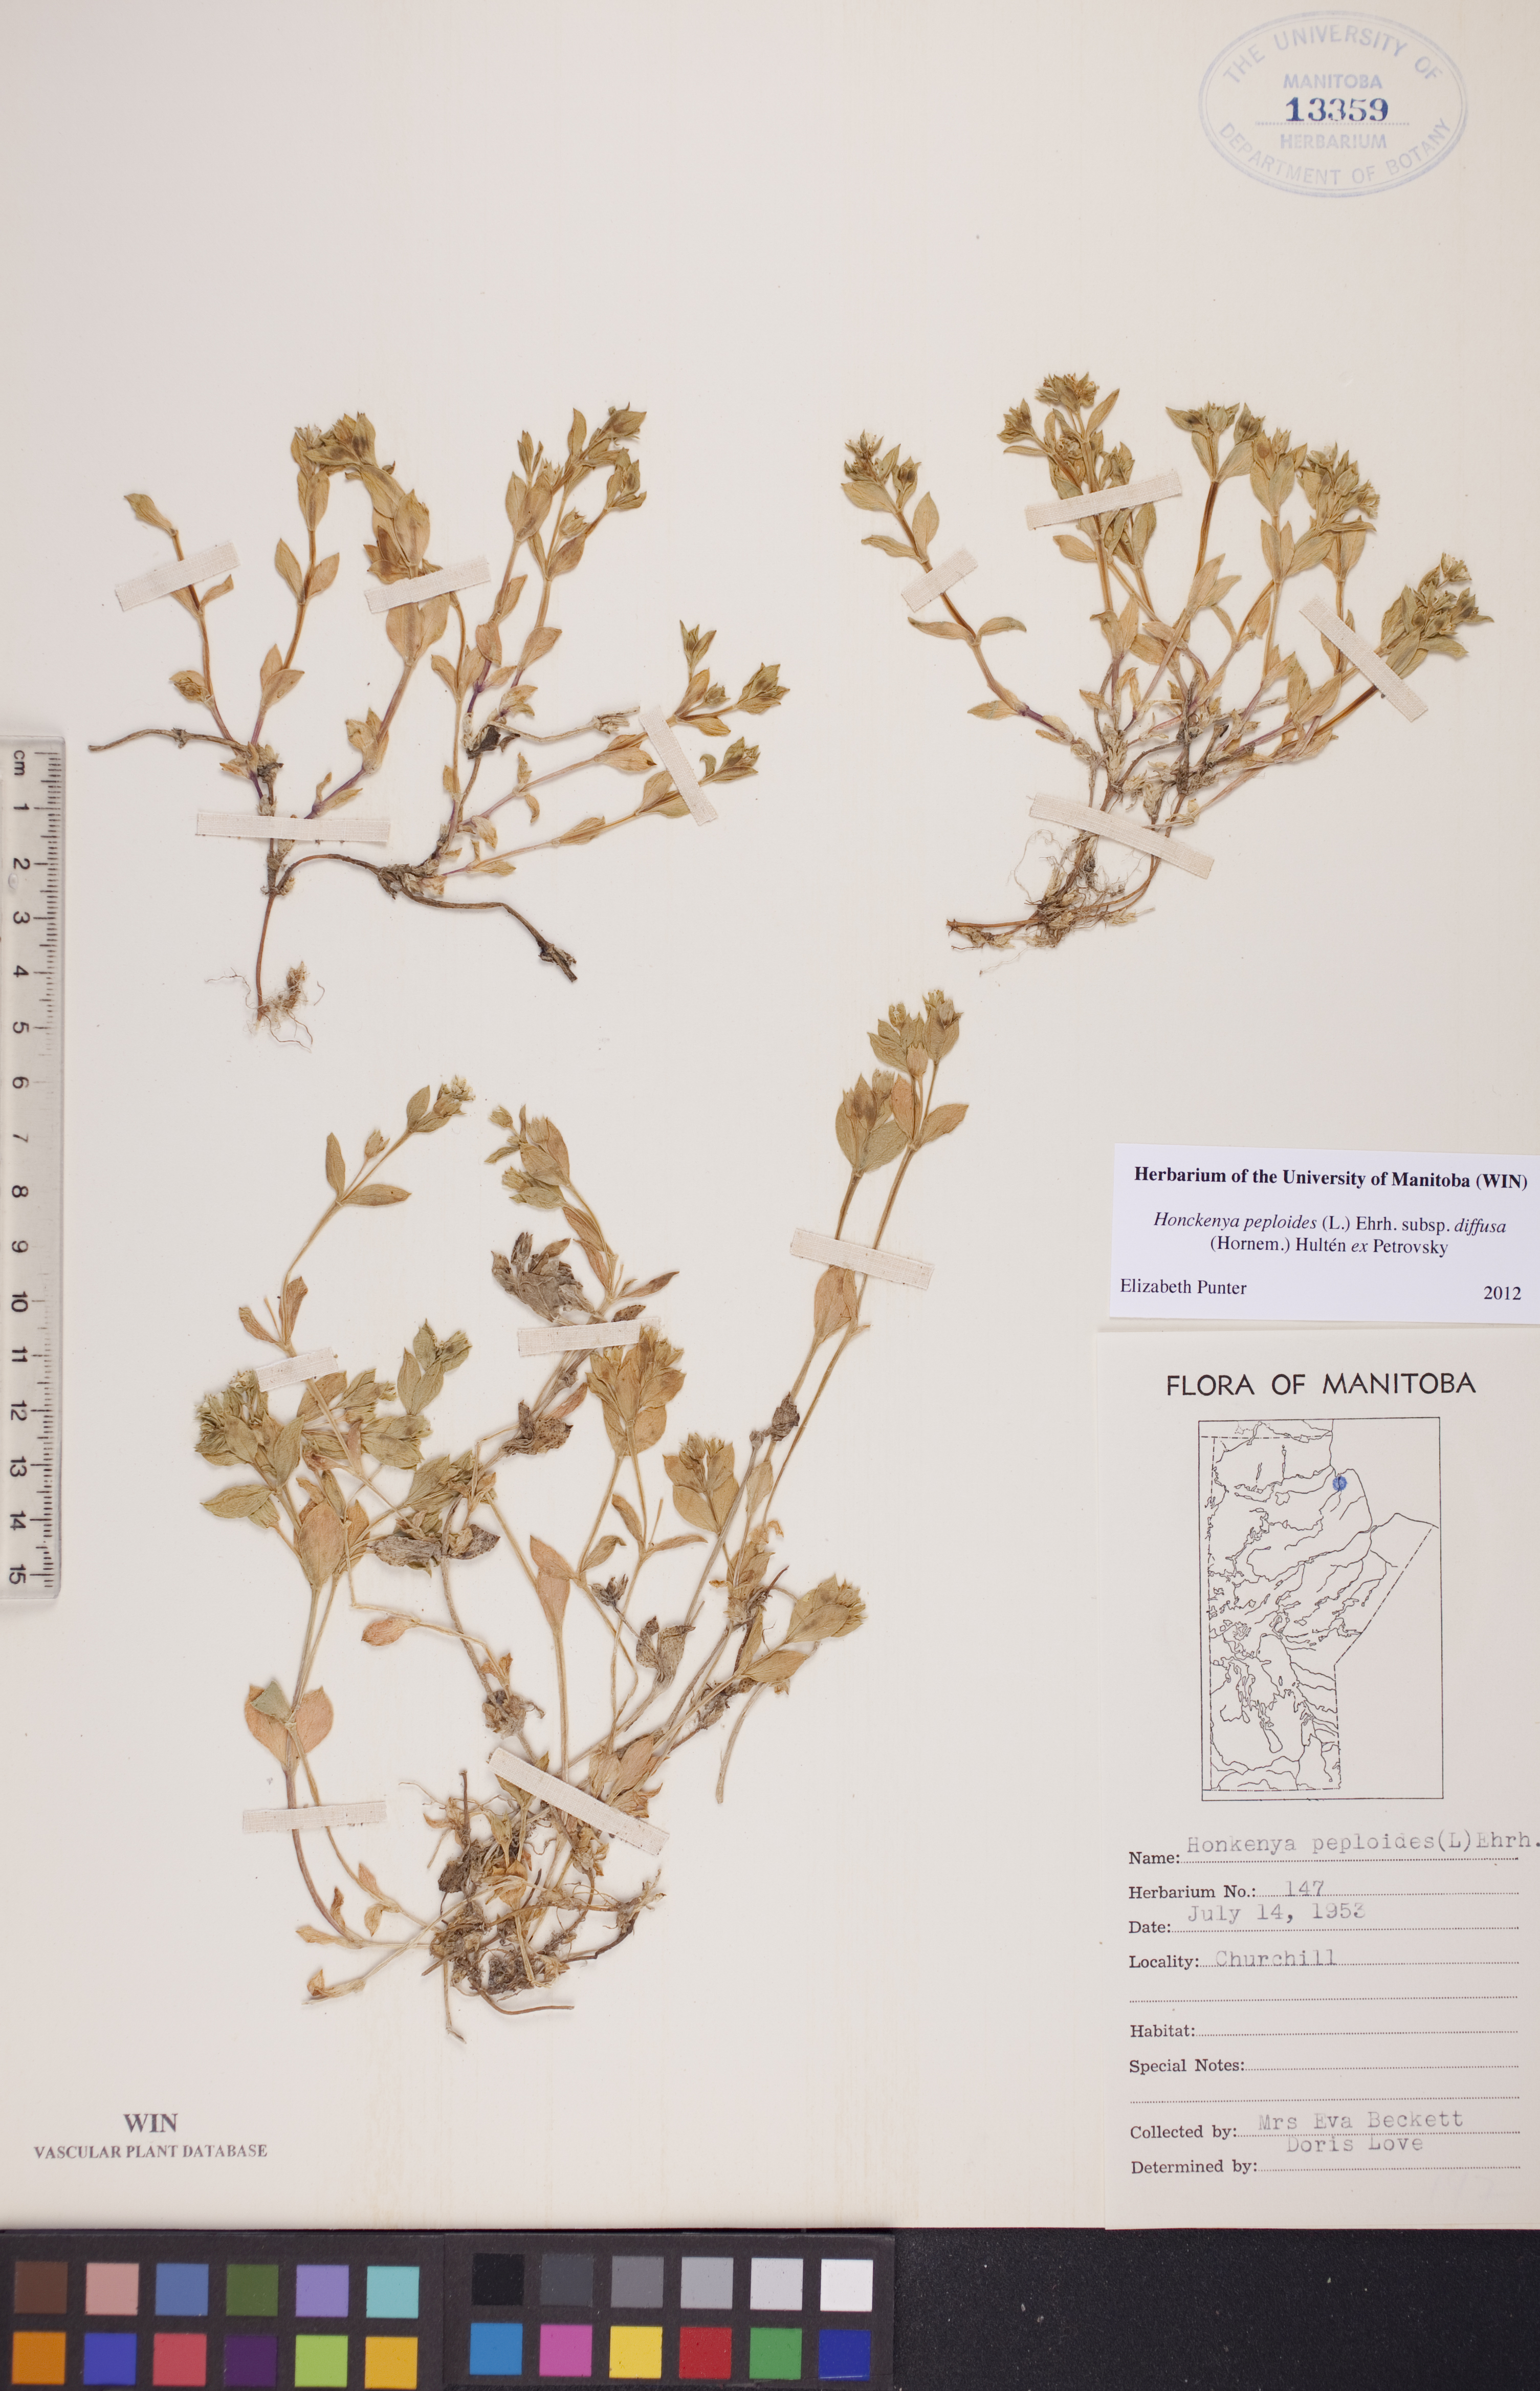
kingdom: Plantae
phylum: Tracheophyta
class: Magnoliopsida
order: Caryophyllales
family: Caryophyllaceae
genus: Honckenya
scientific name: Honckenya peploides
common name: Sea sandwort
